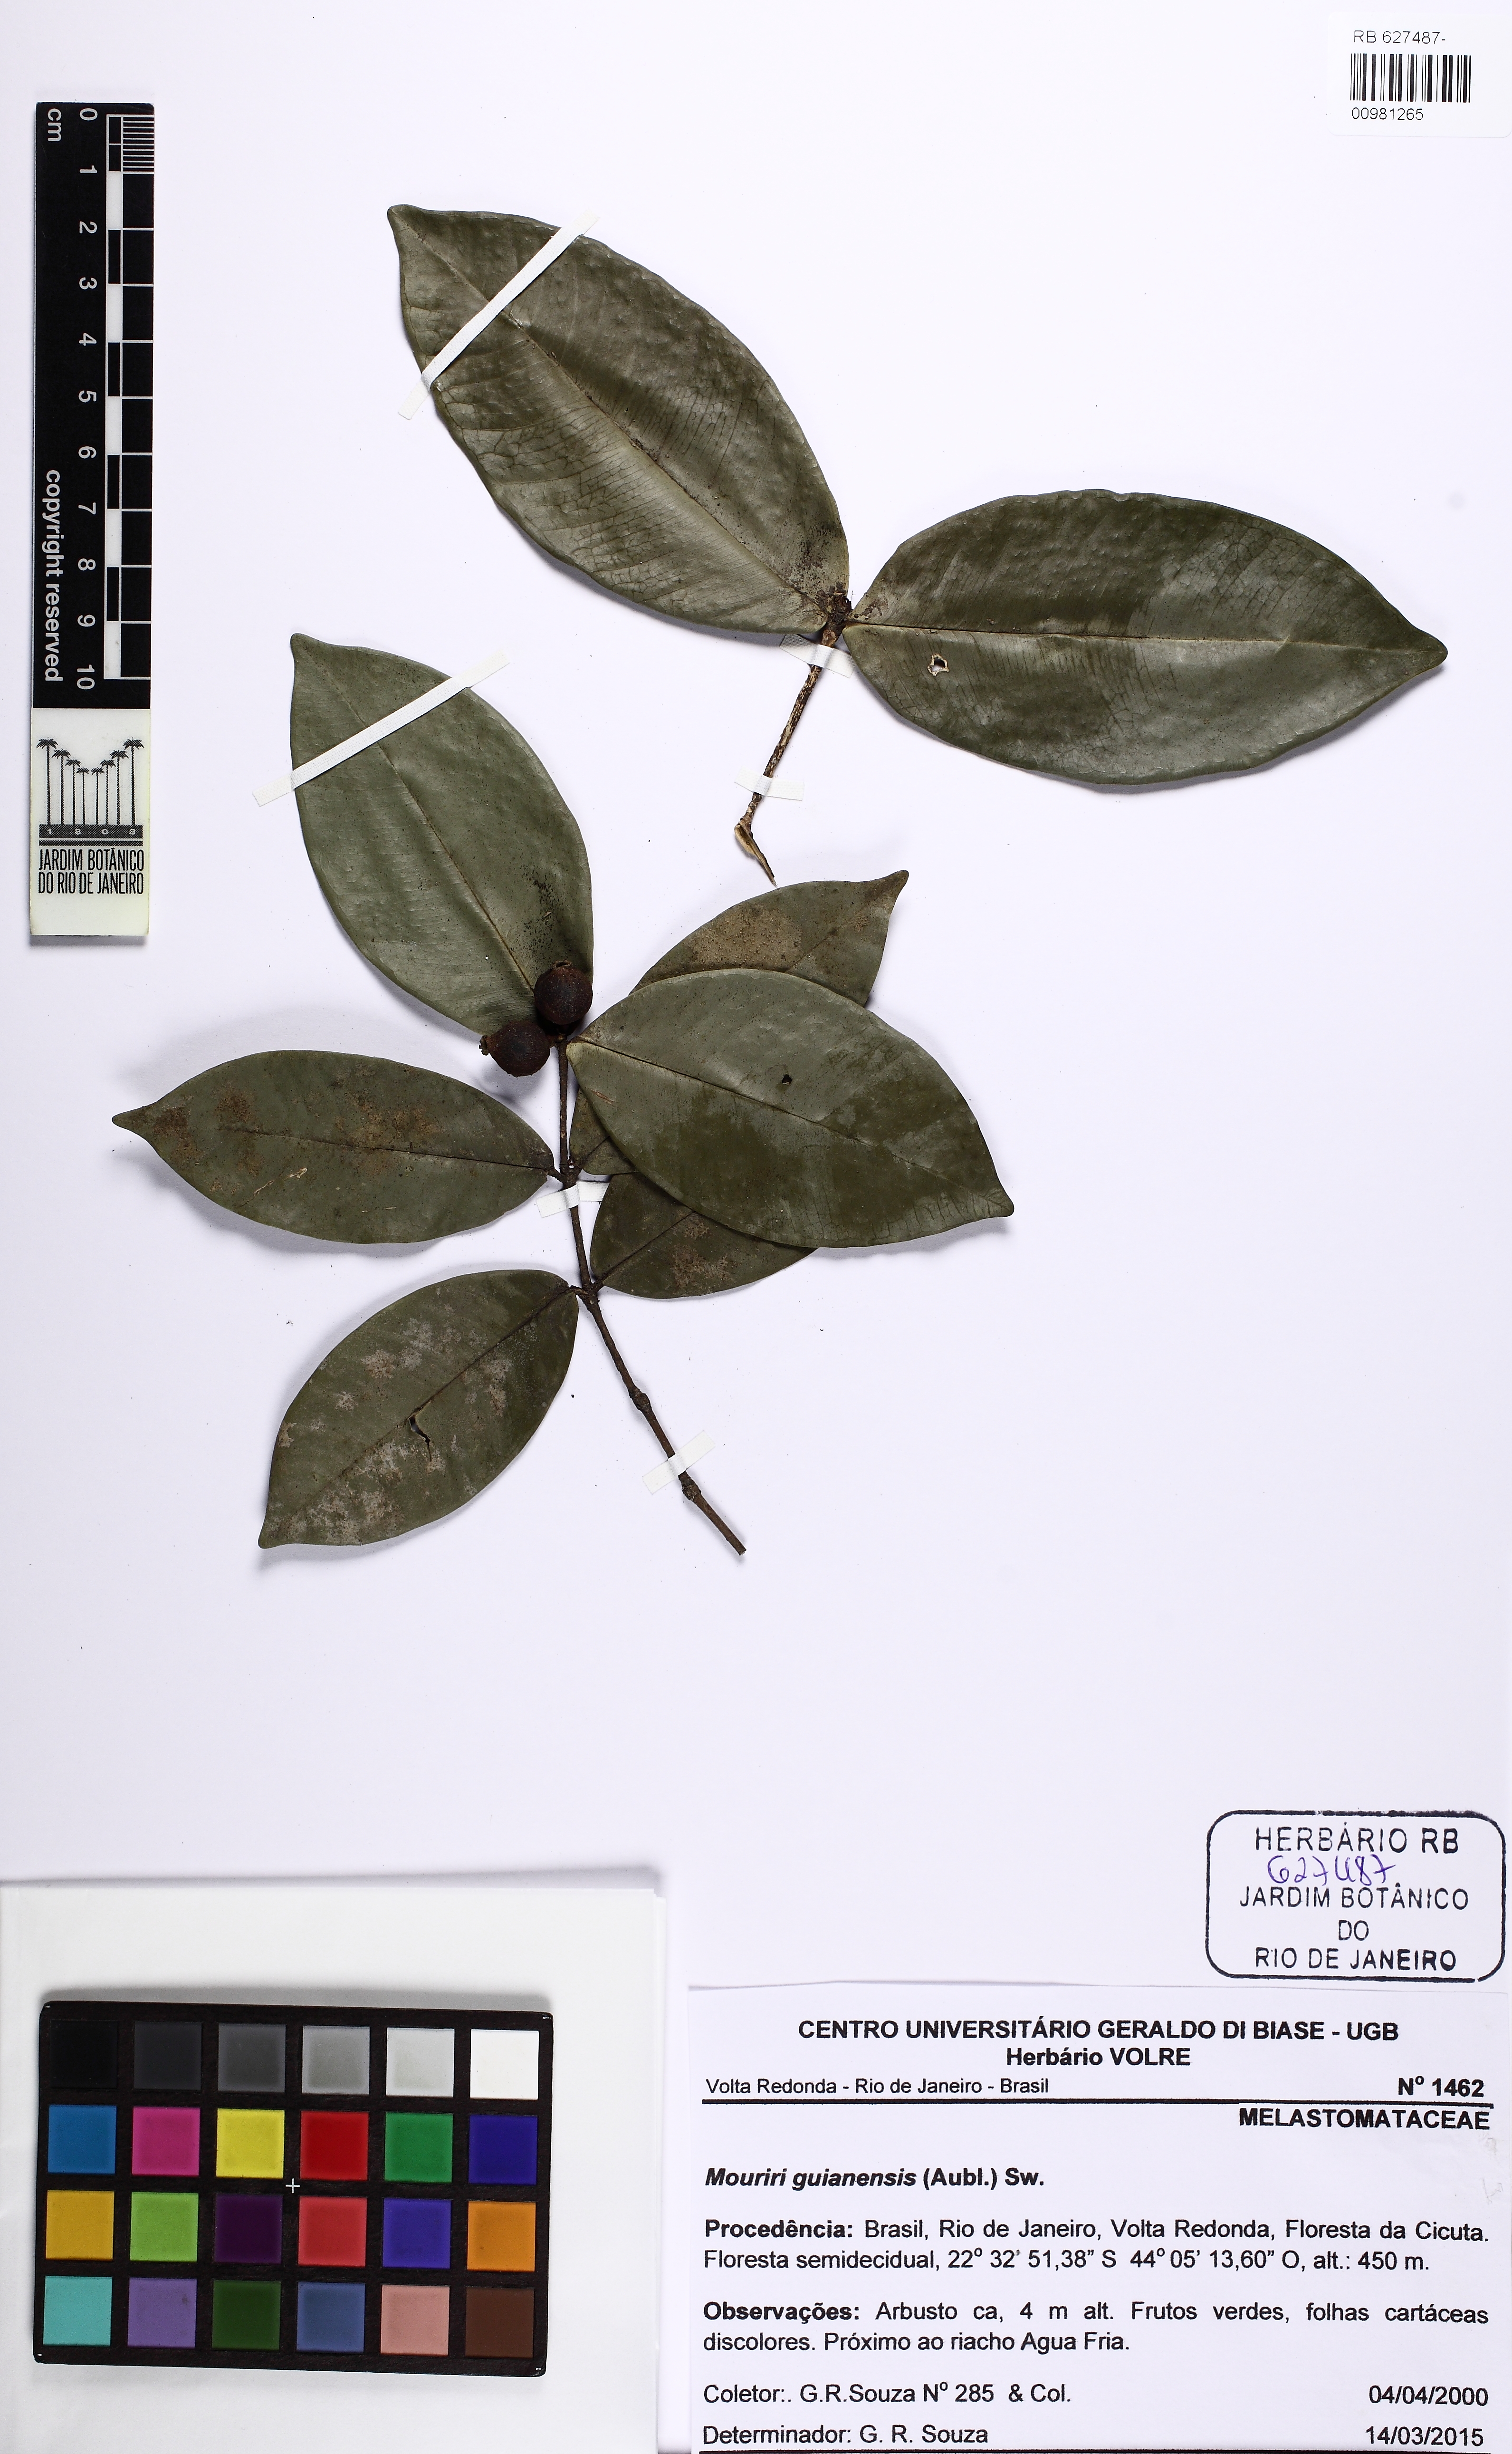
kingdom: Plantae
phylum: Tracheophyta
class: Magnoliopsida
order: Myrtales
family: Myrtaceae
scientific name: Myrtaceae
